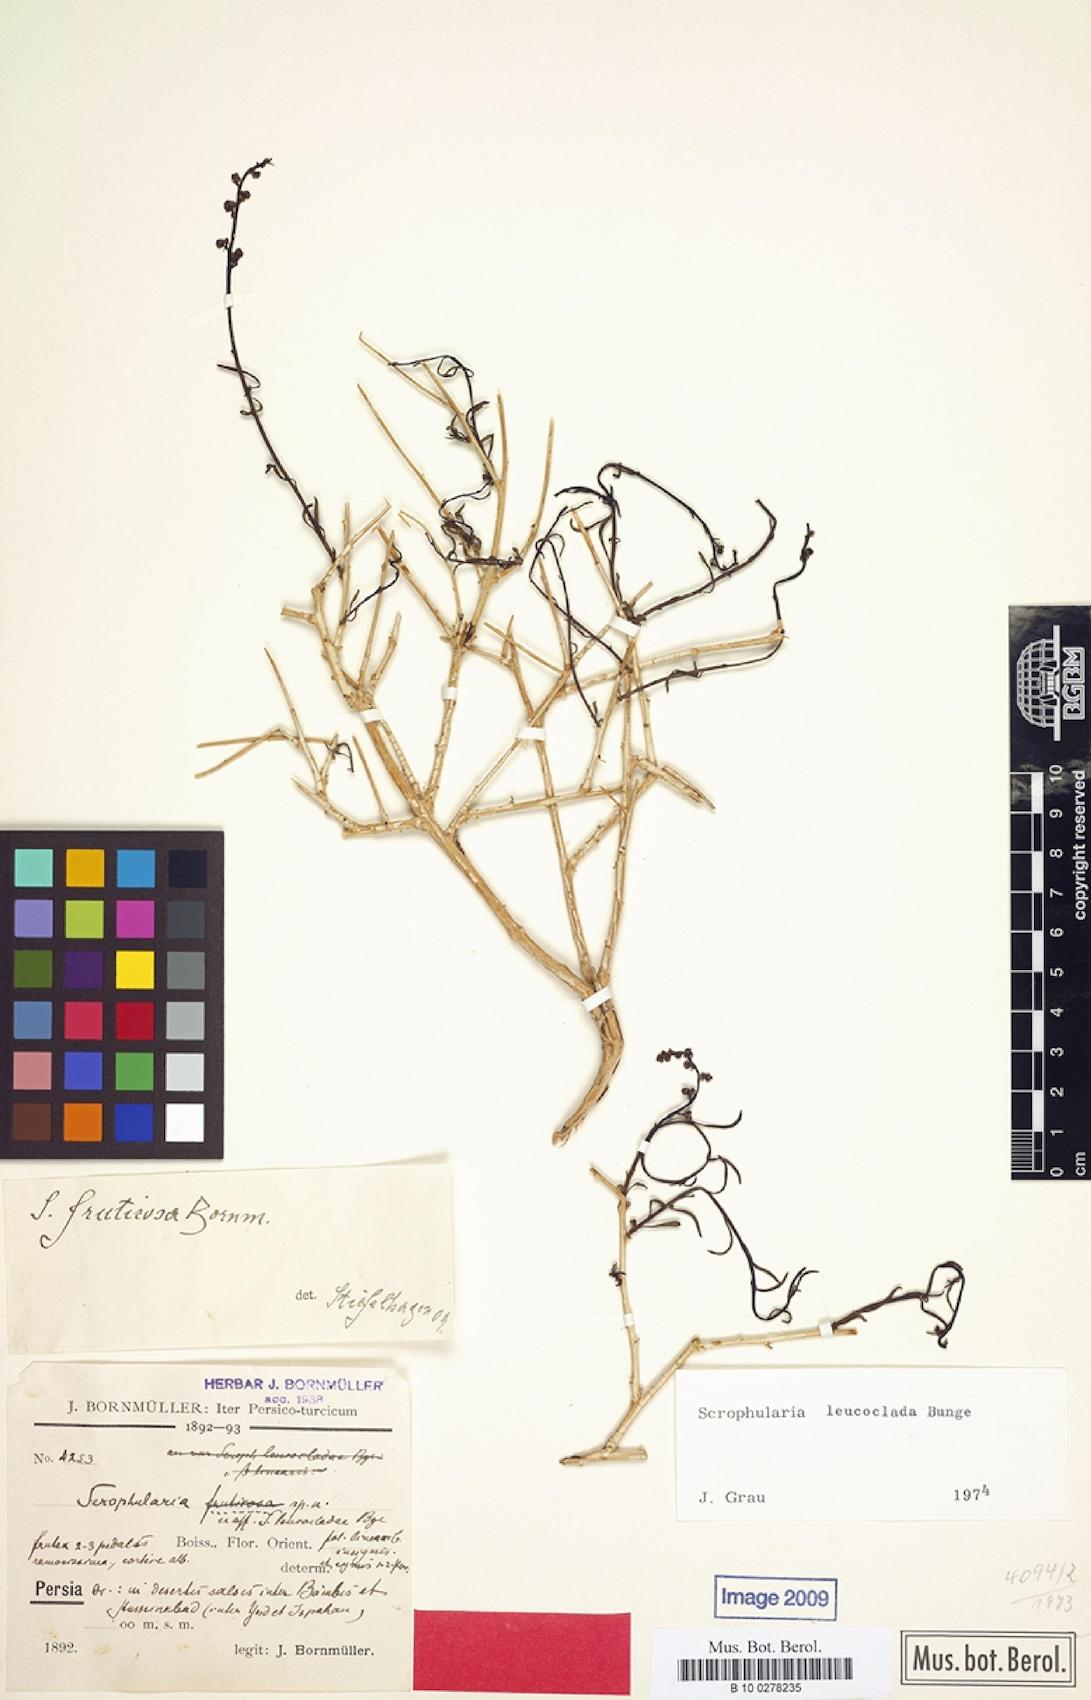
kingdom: Plantae
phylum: Tracheophyta
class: Magnoliopsida
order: Lamiales
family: Scrophulariaceae
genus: Scrophularia
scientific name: Scrophularia leucoclada
